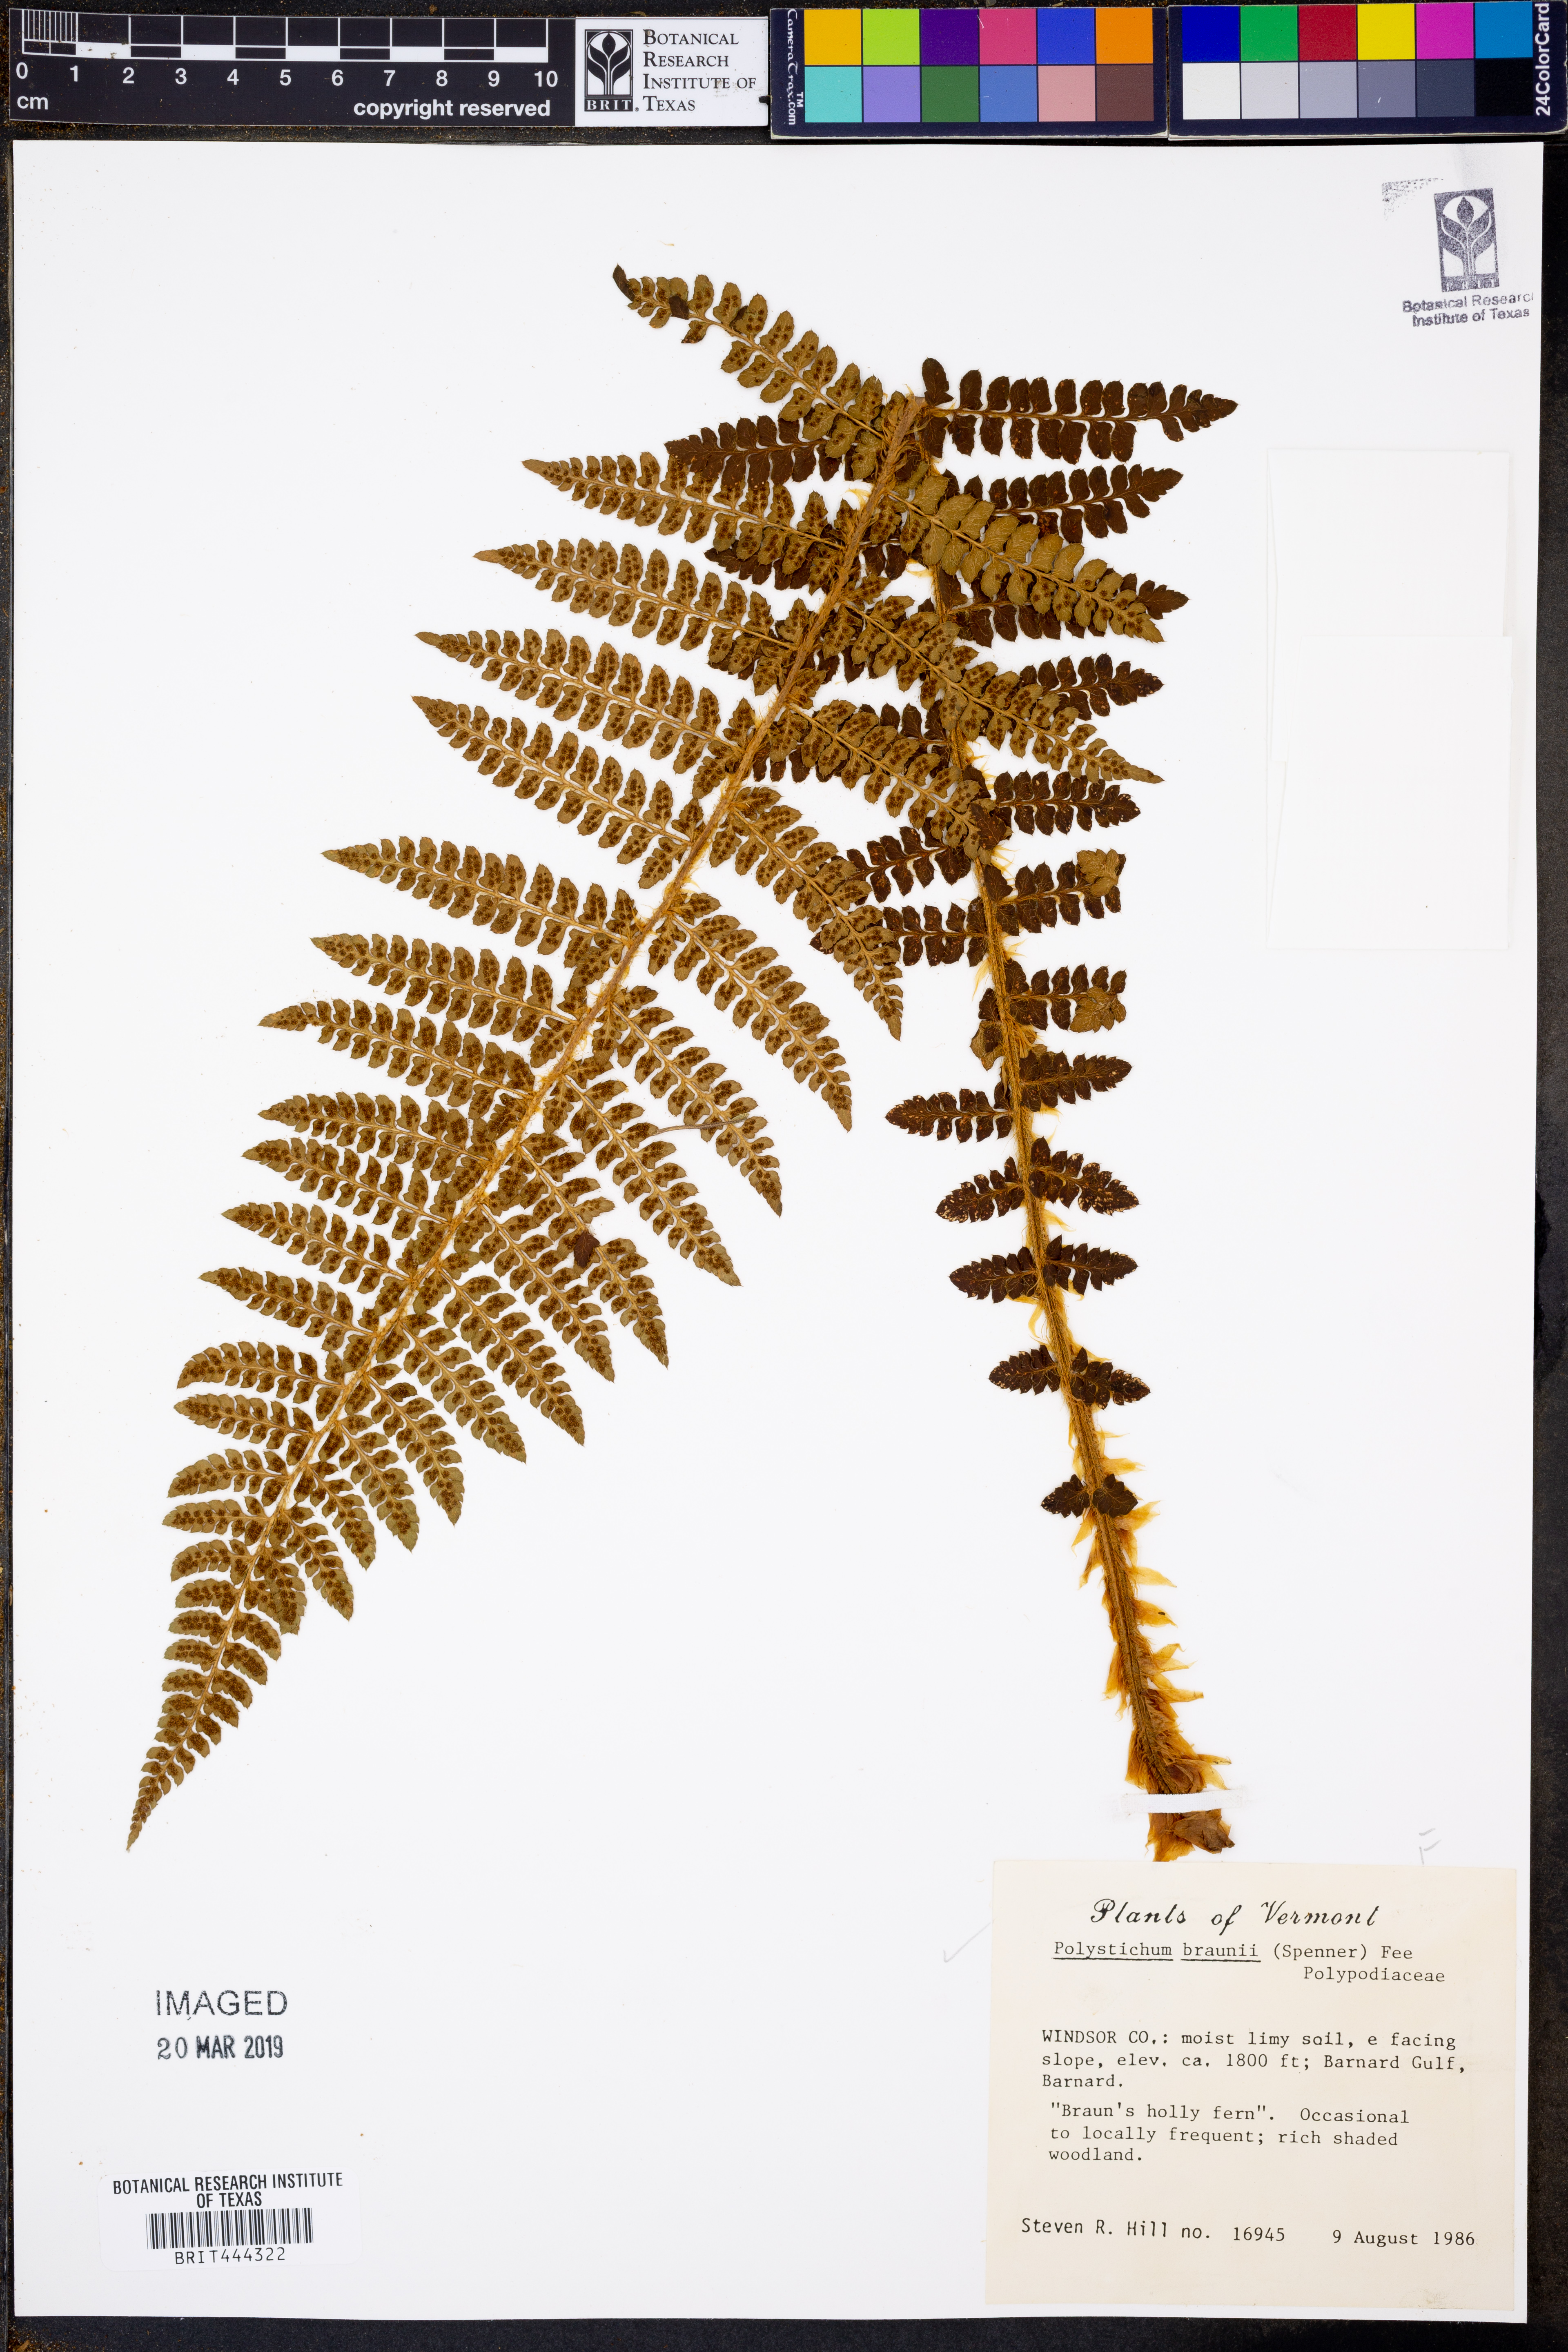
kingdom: Plantae
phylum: Tracheophyta
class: Polypodiopsida
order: Polypodiales
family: Dryopteridaceae
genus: Polystichum
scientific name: Polystichum braunii
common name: Braun's holly fern
